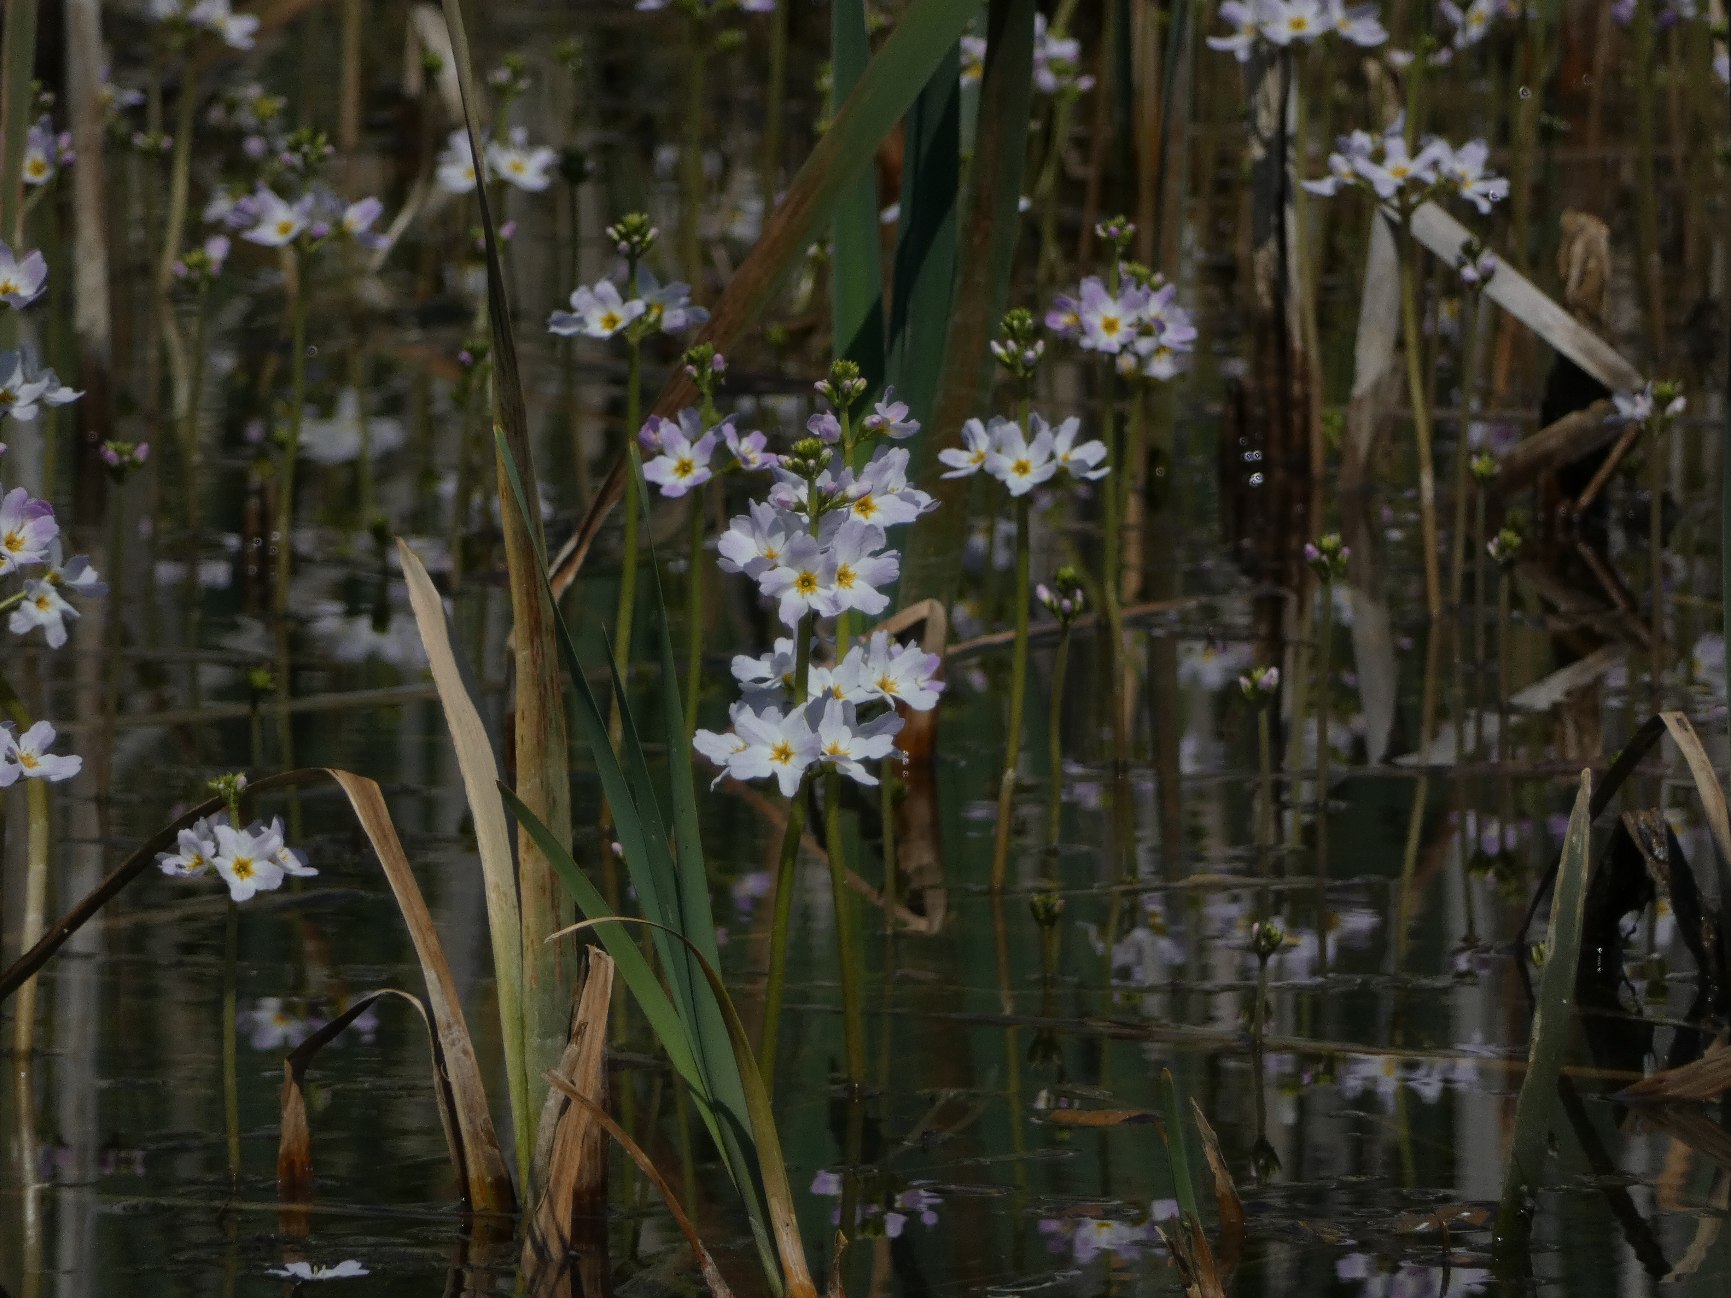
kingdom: Plantae
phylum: Tracheophyta
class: Magnoliopsida
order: Ericales
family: Primulaceae
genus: Hottonia
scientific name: Hottonia palustris
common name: Vandrøllike
